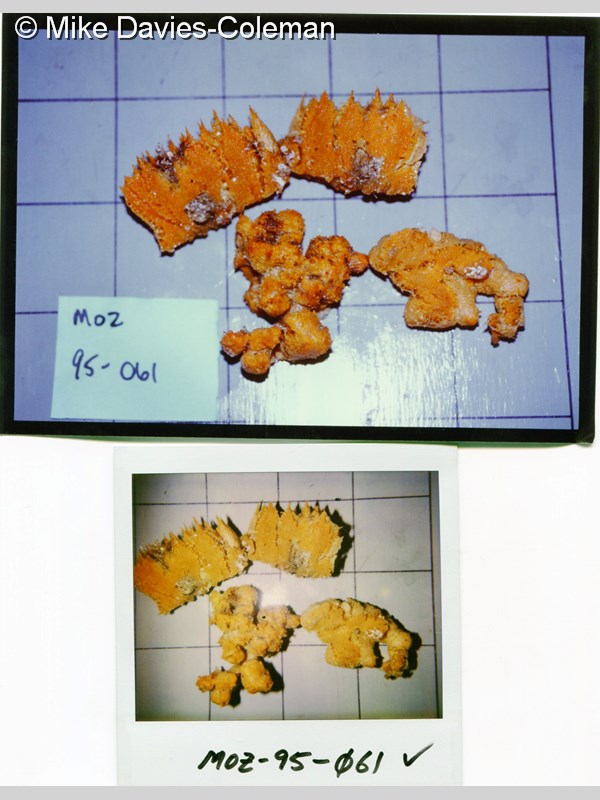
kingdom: Animalia
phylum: Porifera
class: Demospongiae
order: Axinellida
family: Axinellidae
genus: Axinella
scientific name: Axinella
